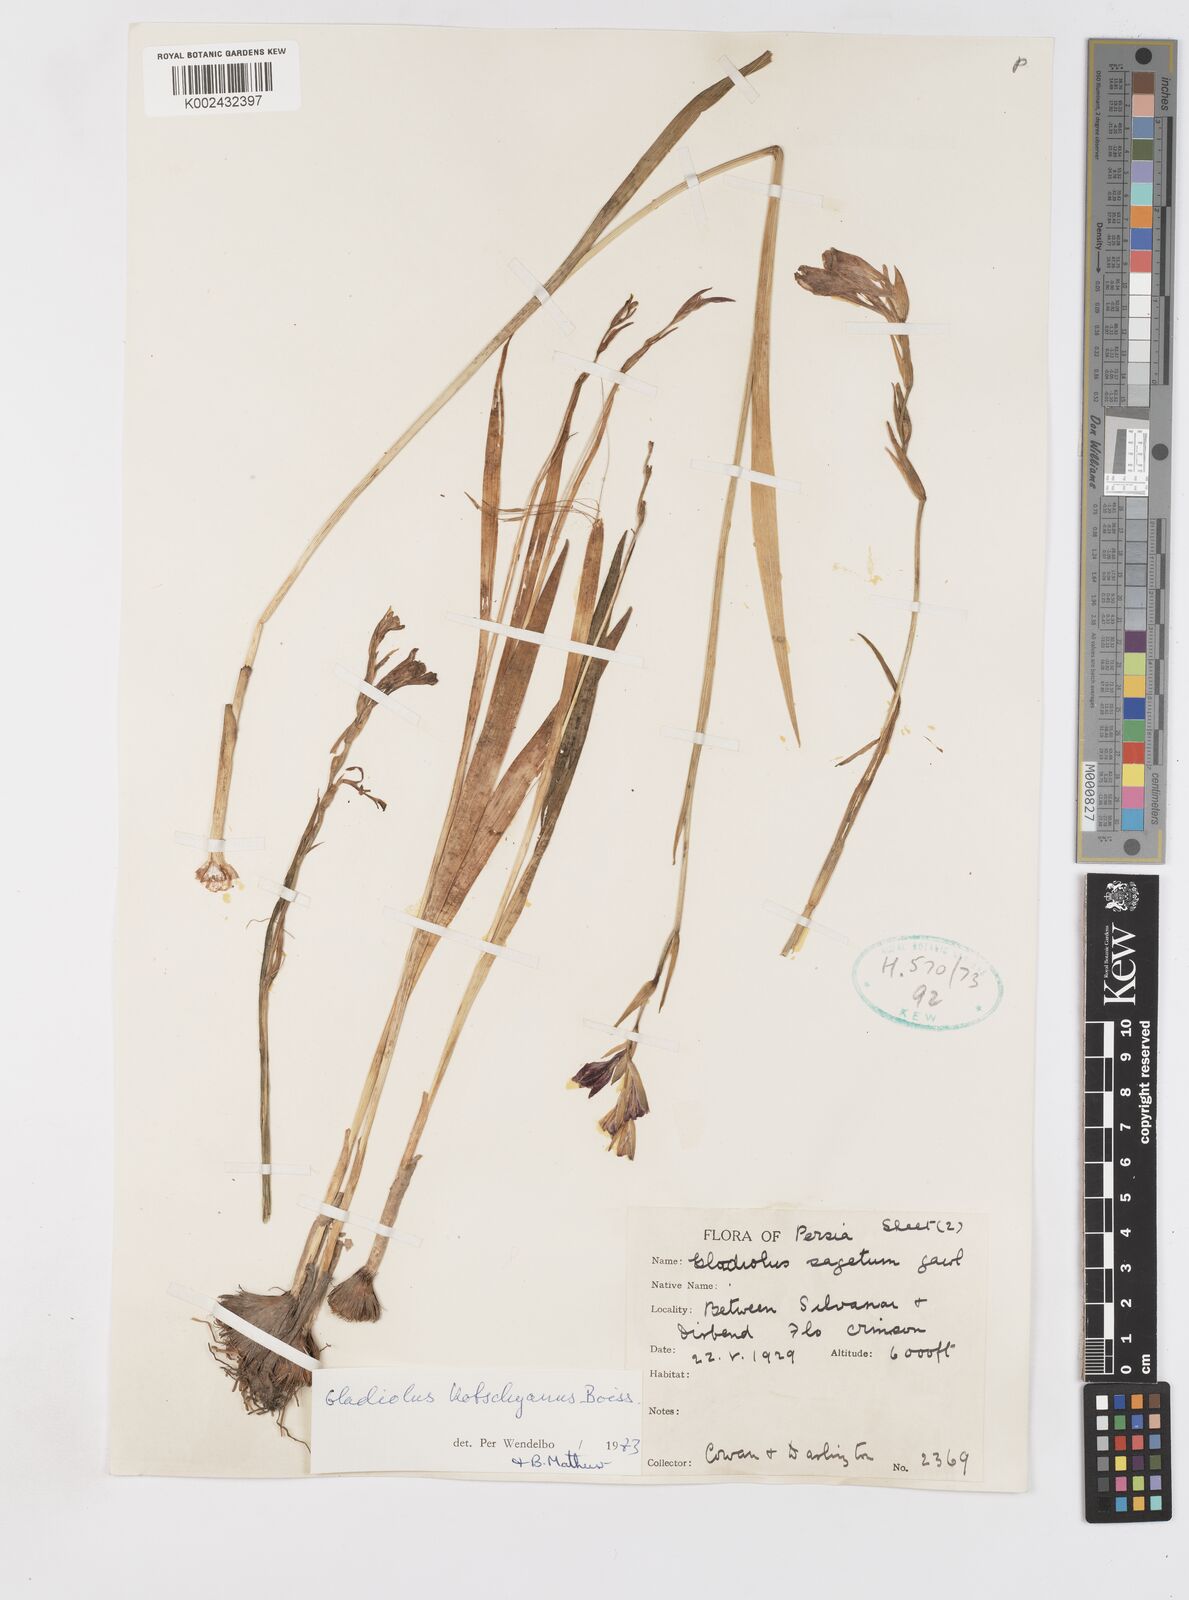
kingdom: Plantae
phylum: Tracheophyta
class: Liliopsida
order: Asparagales
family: Iridaceae
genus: Gladiolus
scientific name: Gladiolus kotschyanus
